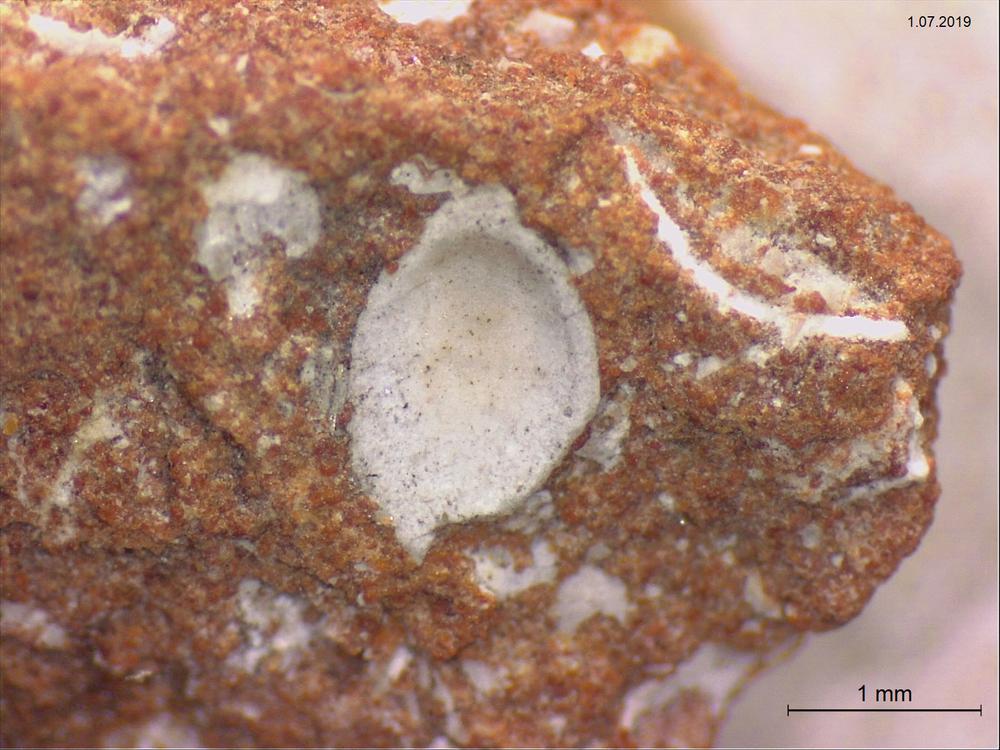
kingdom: Animalia
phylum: Brachiopoda
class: Craniata
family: Craniopsidae
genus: Craniops
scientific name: Craniops
